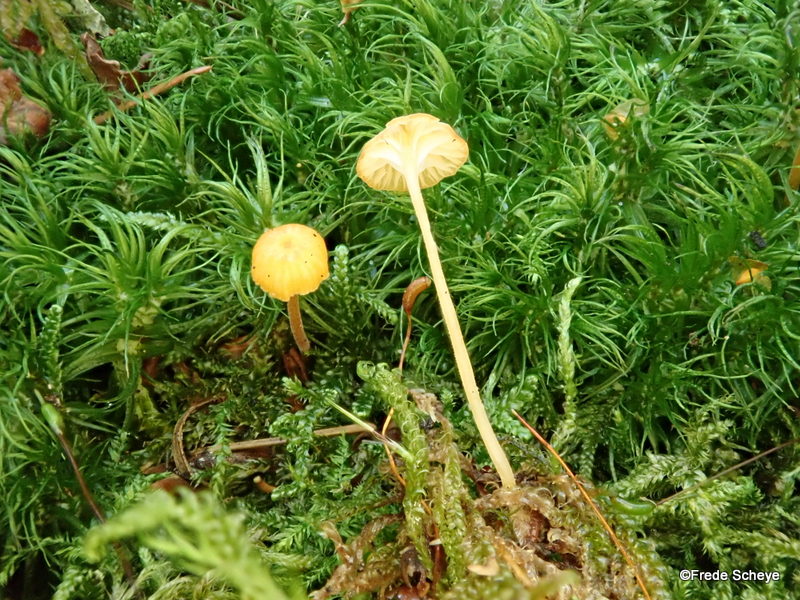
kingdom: Fungi
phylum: Basidiomycota
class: Agaricomycetes
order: Hymenochaetales
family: Rickenellaceae
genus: Rickenella
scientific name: Rickenella fibula
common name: orange mosnavlehat
